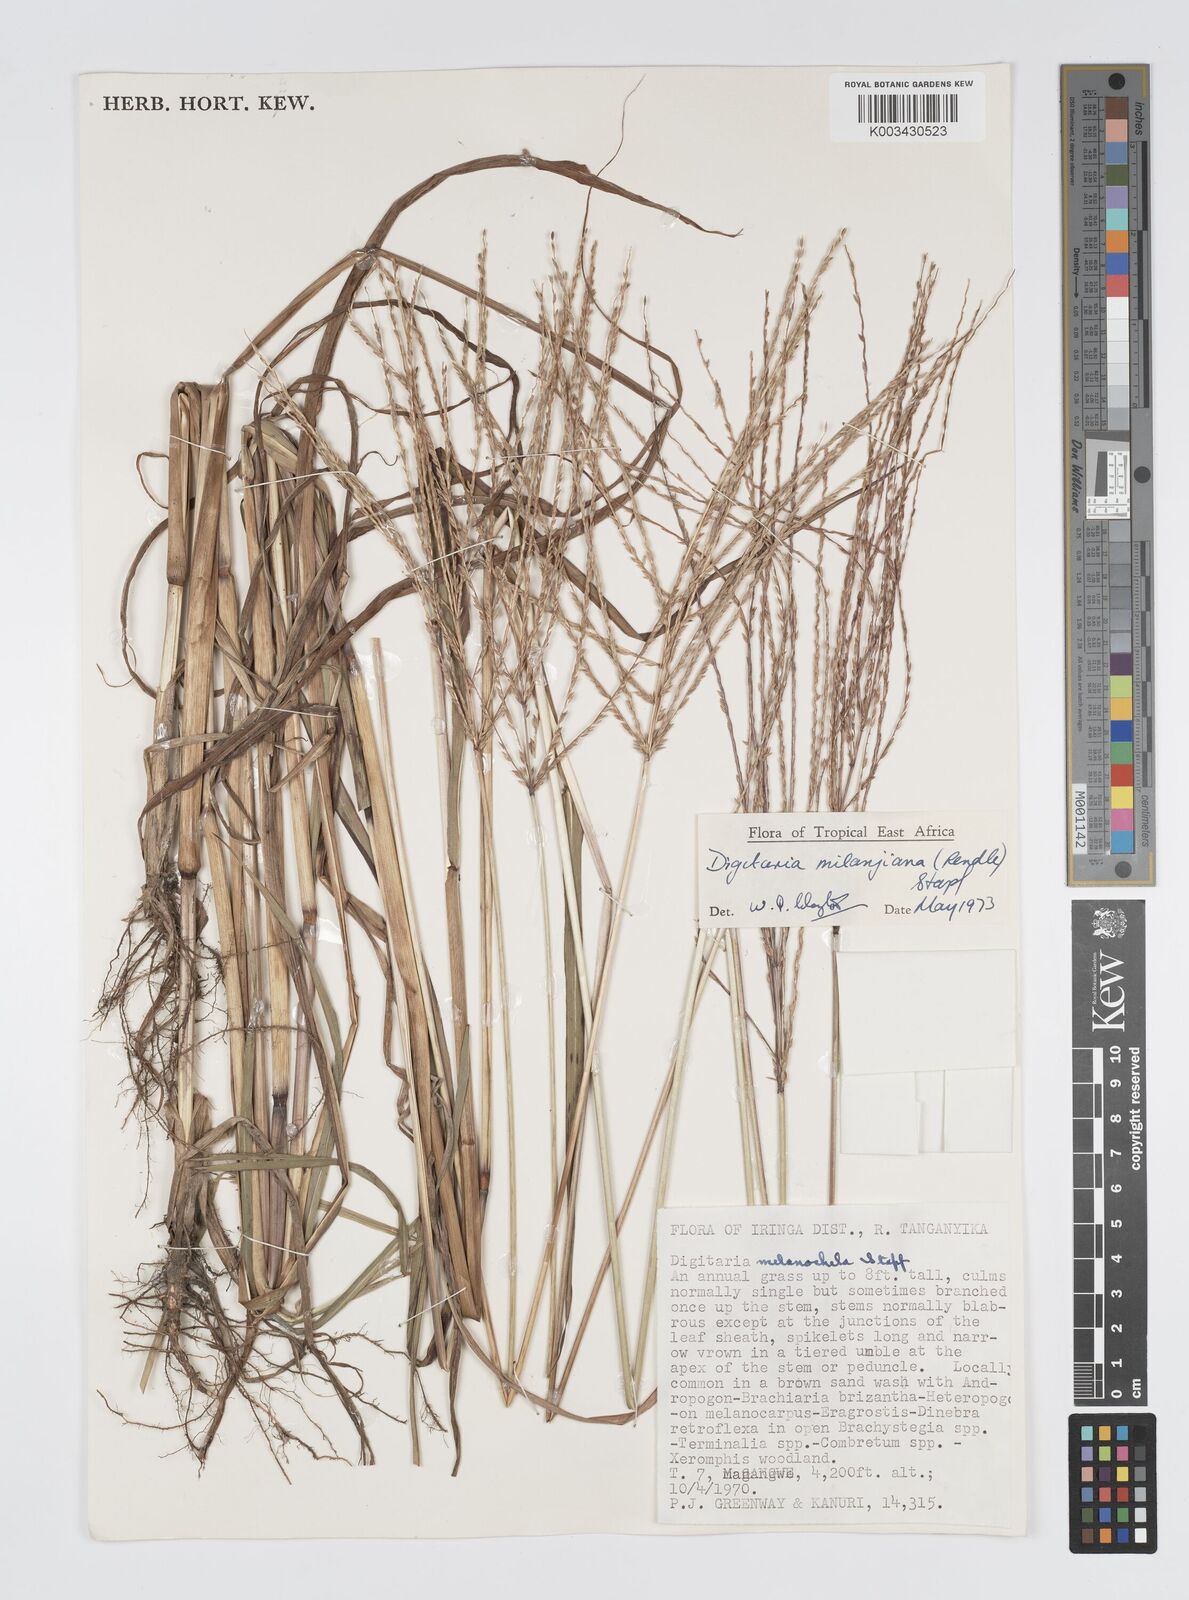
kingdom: Plantae
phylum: Tracheophyta
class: Liliopsida
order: Poales
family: Poaceae
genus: Digitaria
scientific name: Digitaria milanjiana
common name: Madagascar crabgrass
